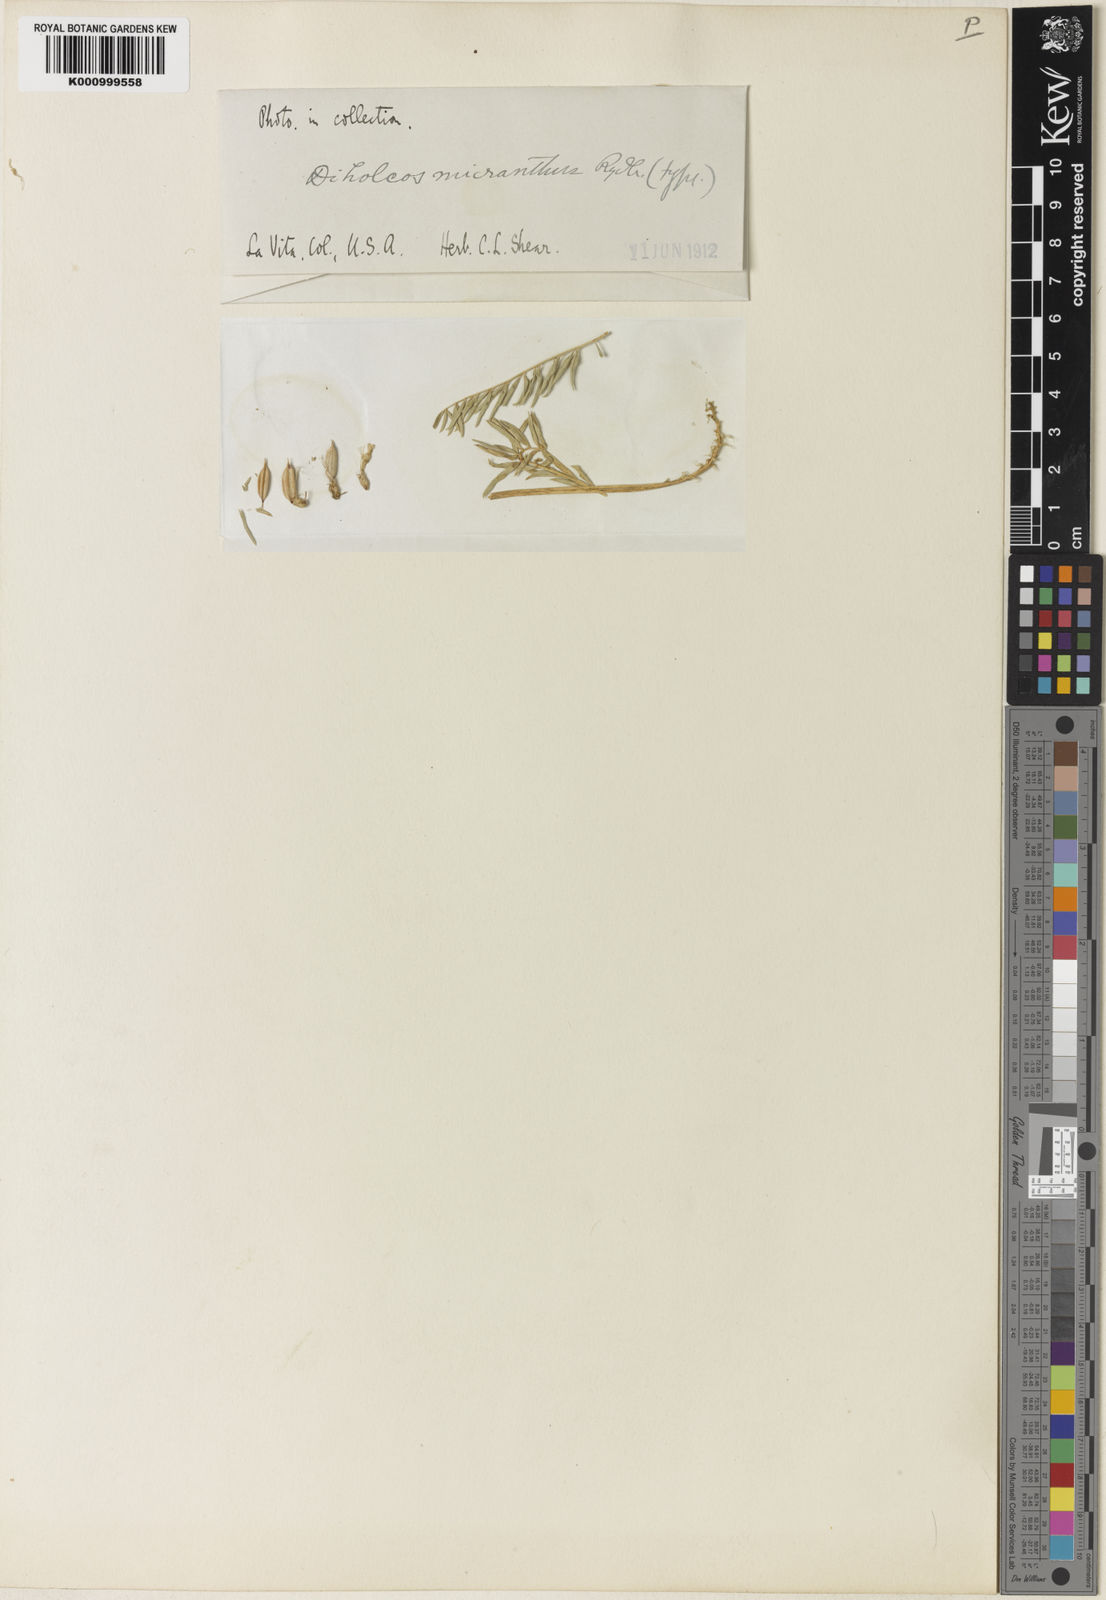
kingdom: Plantae
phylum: Tracheophyta
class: Magnoliopsida
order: Fabales
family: Fabaceae
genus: Astragalus
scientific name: Astragalus micranthus
